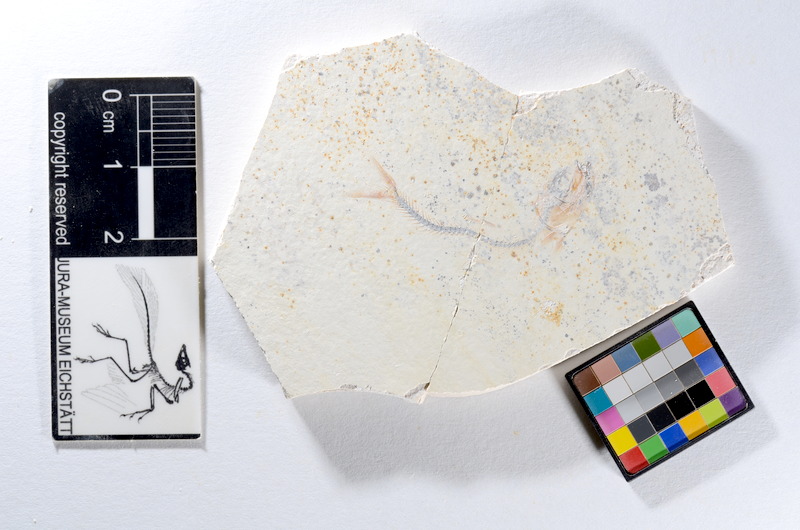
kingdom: Animalia
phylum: Chordata
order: Salmoniformes
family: Orthogonikleithridae
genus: Orthogonikleithrus
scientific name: Orthogonikleithrus hoelli
